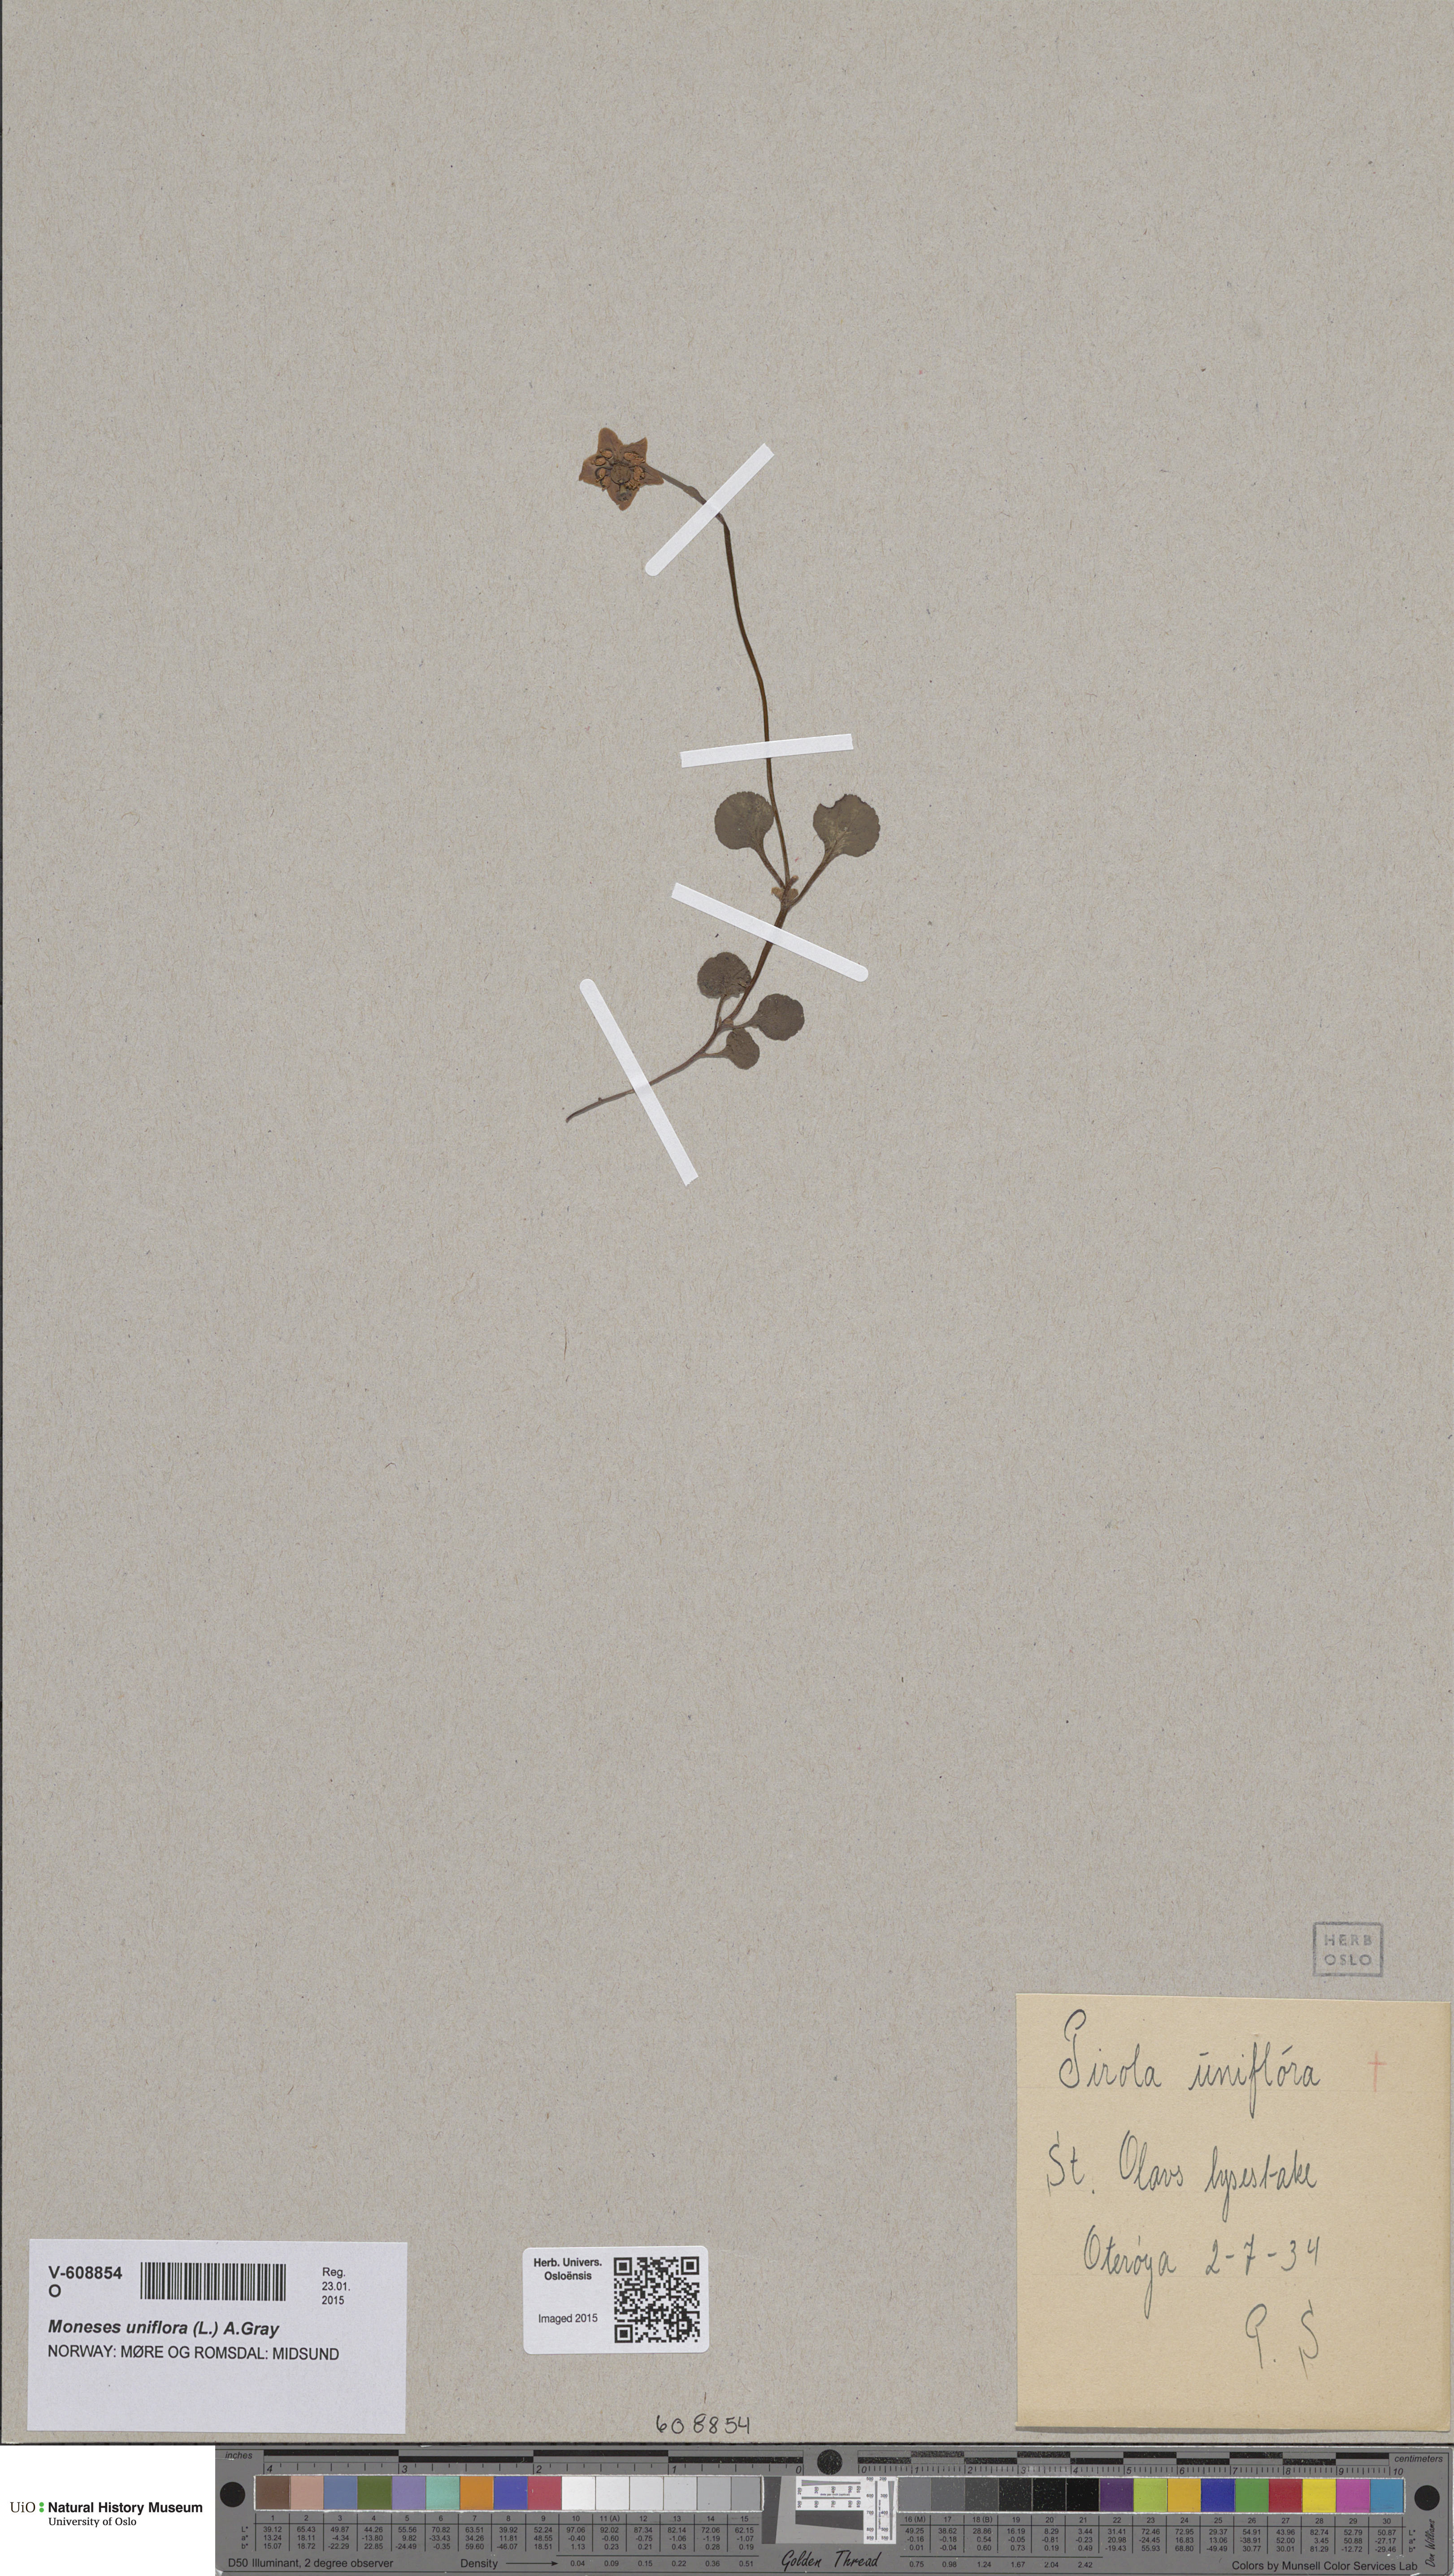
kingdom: Plantae
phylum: Tracheophyta
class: Magnoliopsida
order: Ericales
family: Ericaceae
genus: Moneses
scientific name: Moneses uniflora
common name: One-flowered wintergreen
